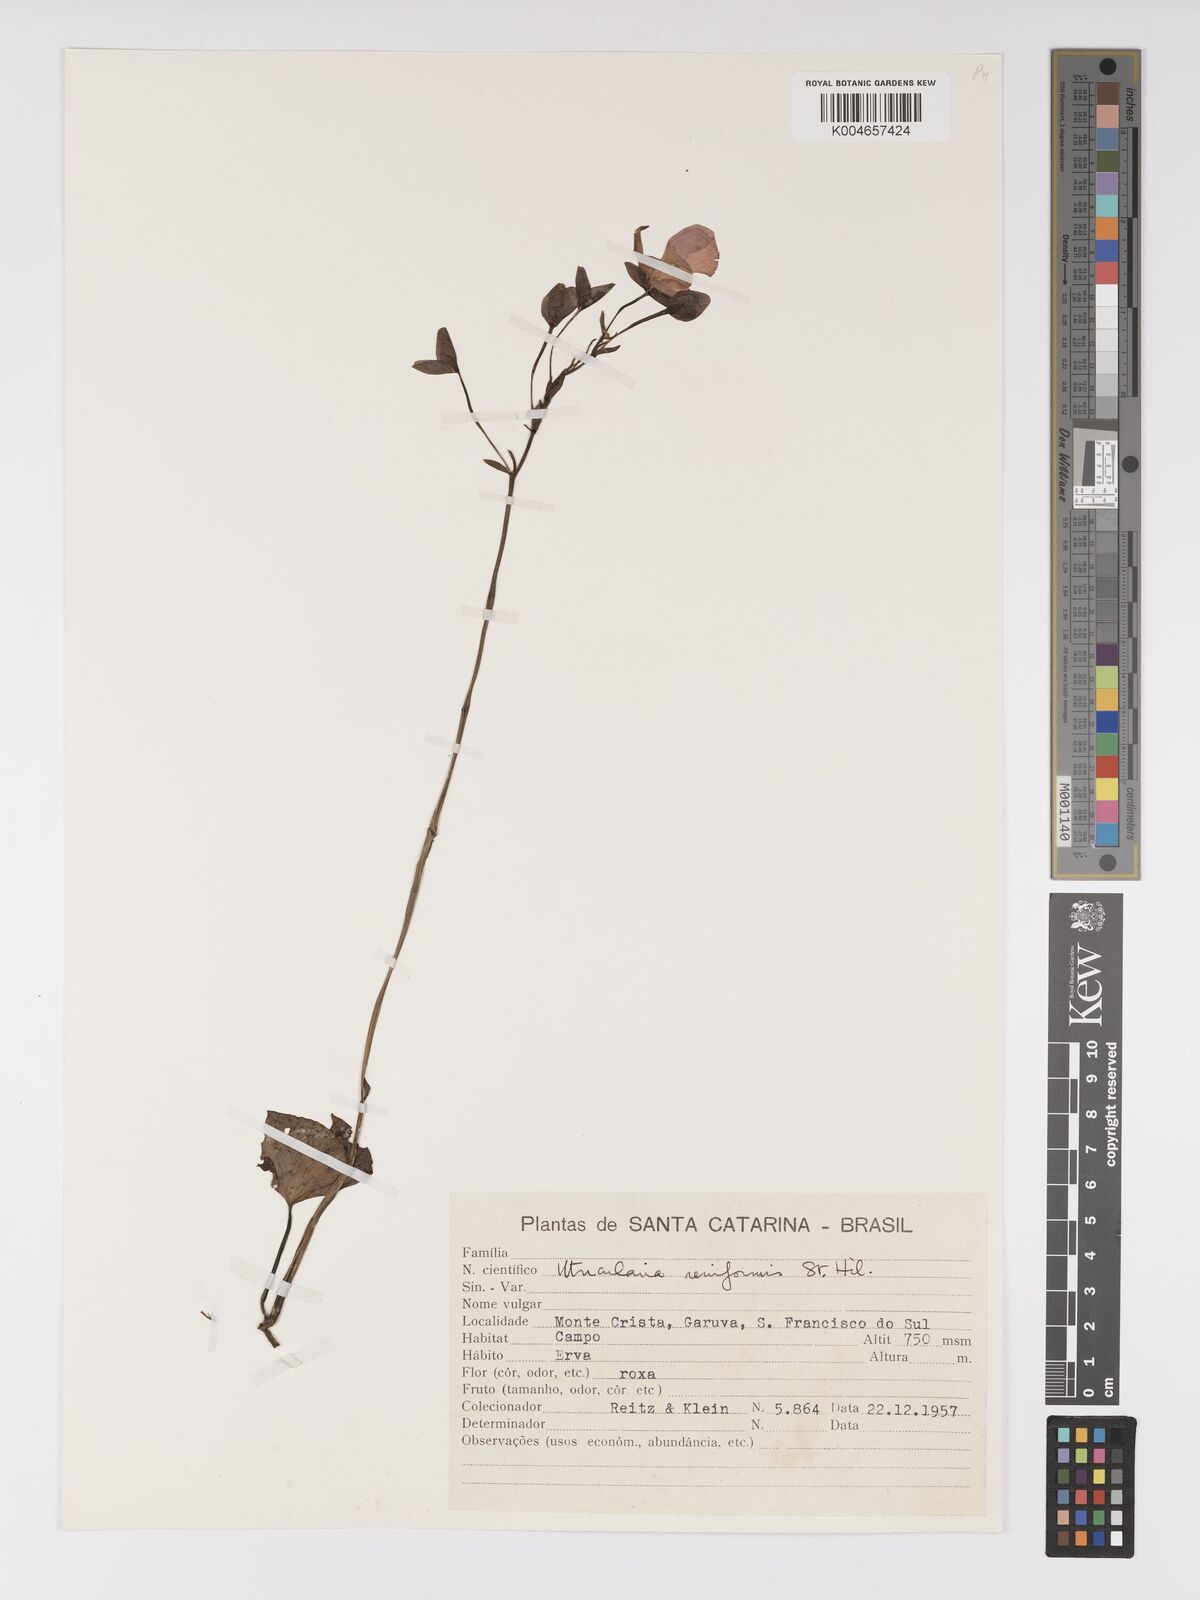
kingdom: Plantae
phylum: Tracheophyta
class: Magnoliopsida
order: Lamiales
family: Lentibulariaceae
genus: Utricularia
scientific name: Utricularia reniformis
